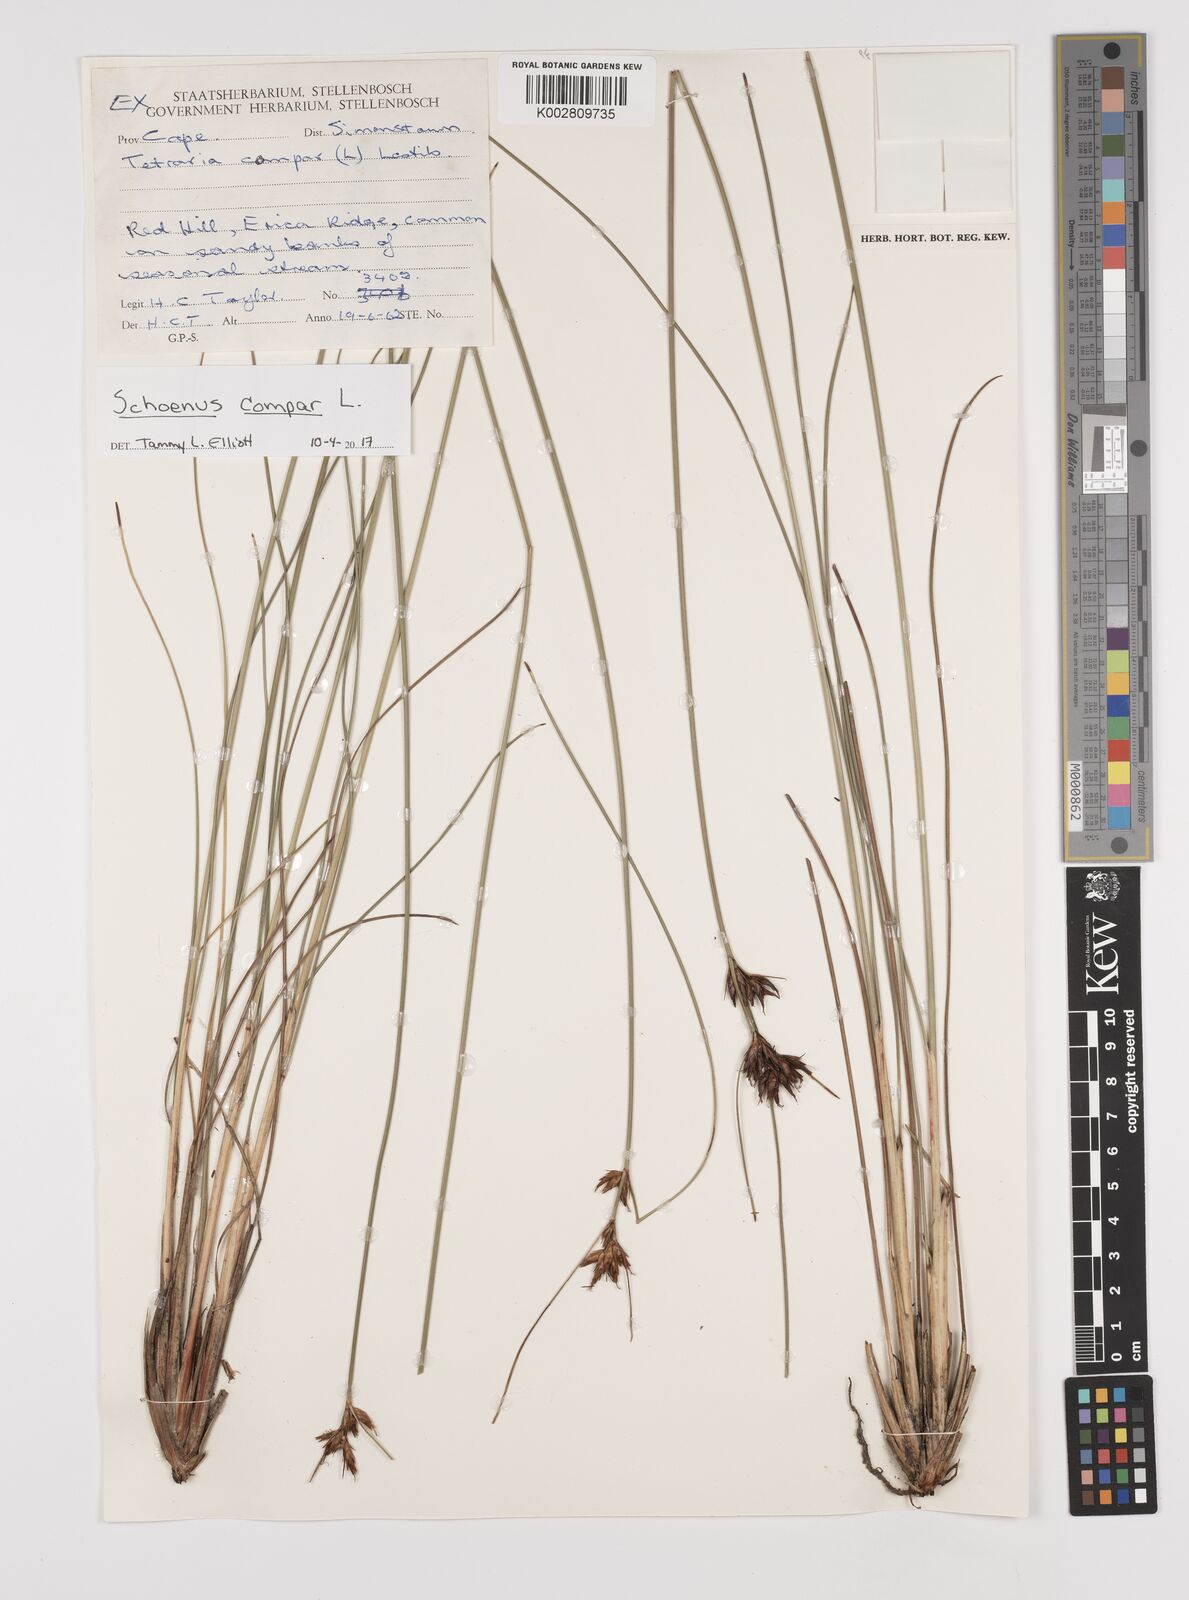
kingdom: Plantae
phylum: Tracheophyta
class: Liliopsida
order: Poales
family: Cyperaceae
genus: Schoenus
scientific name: Schoenus compar
